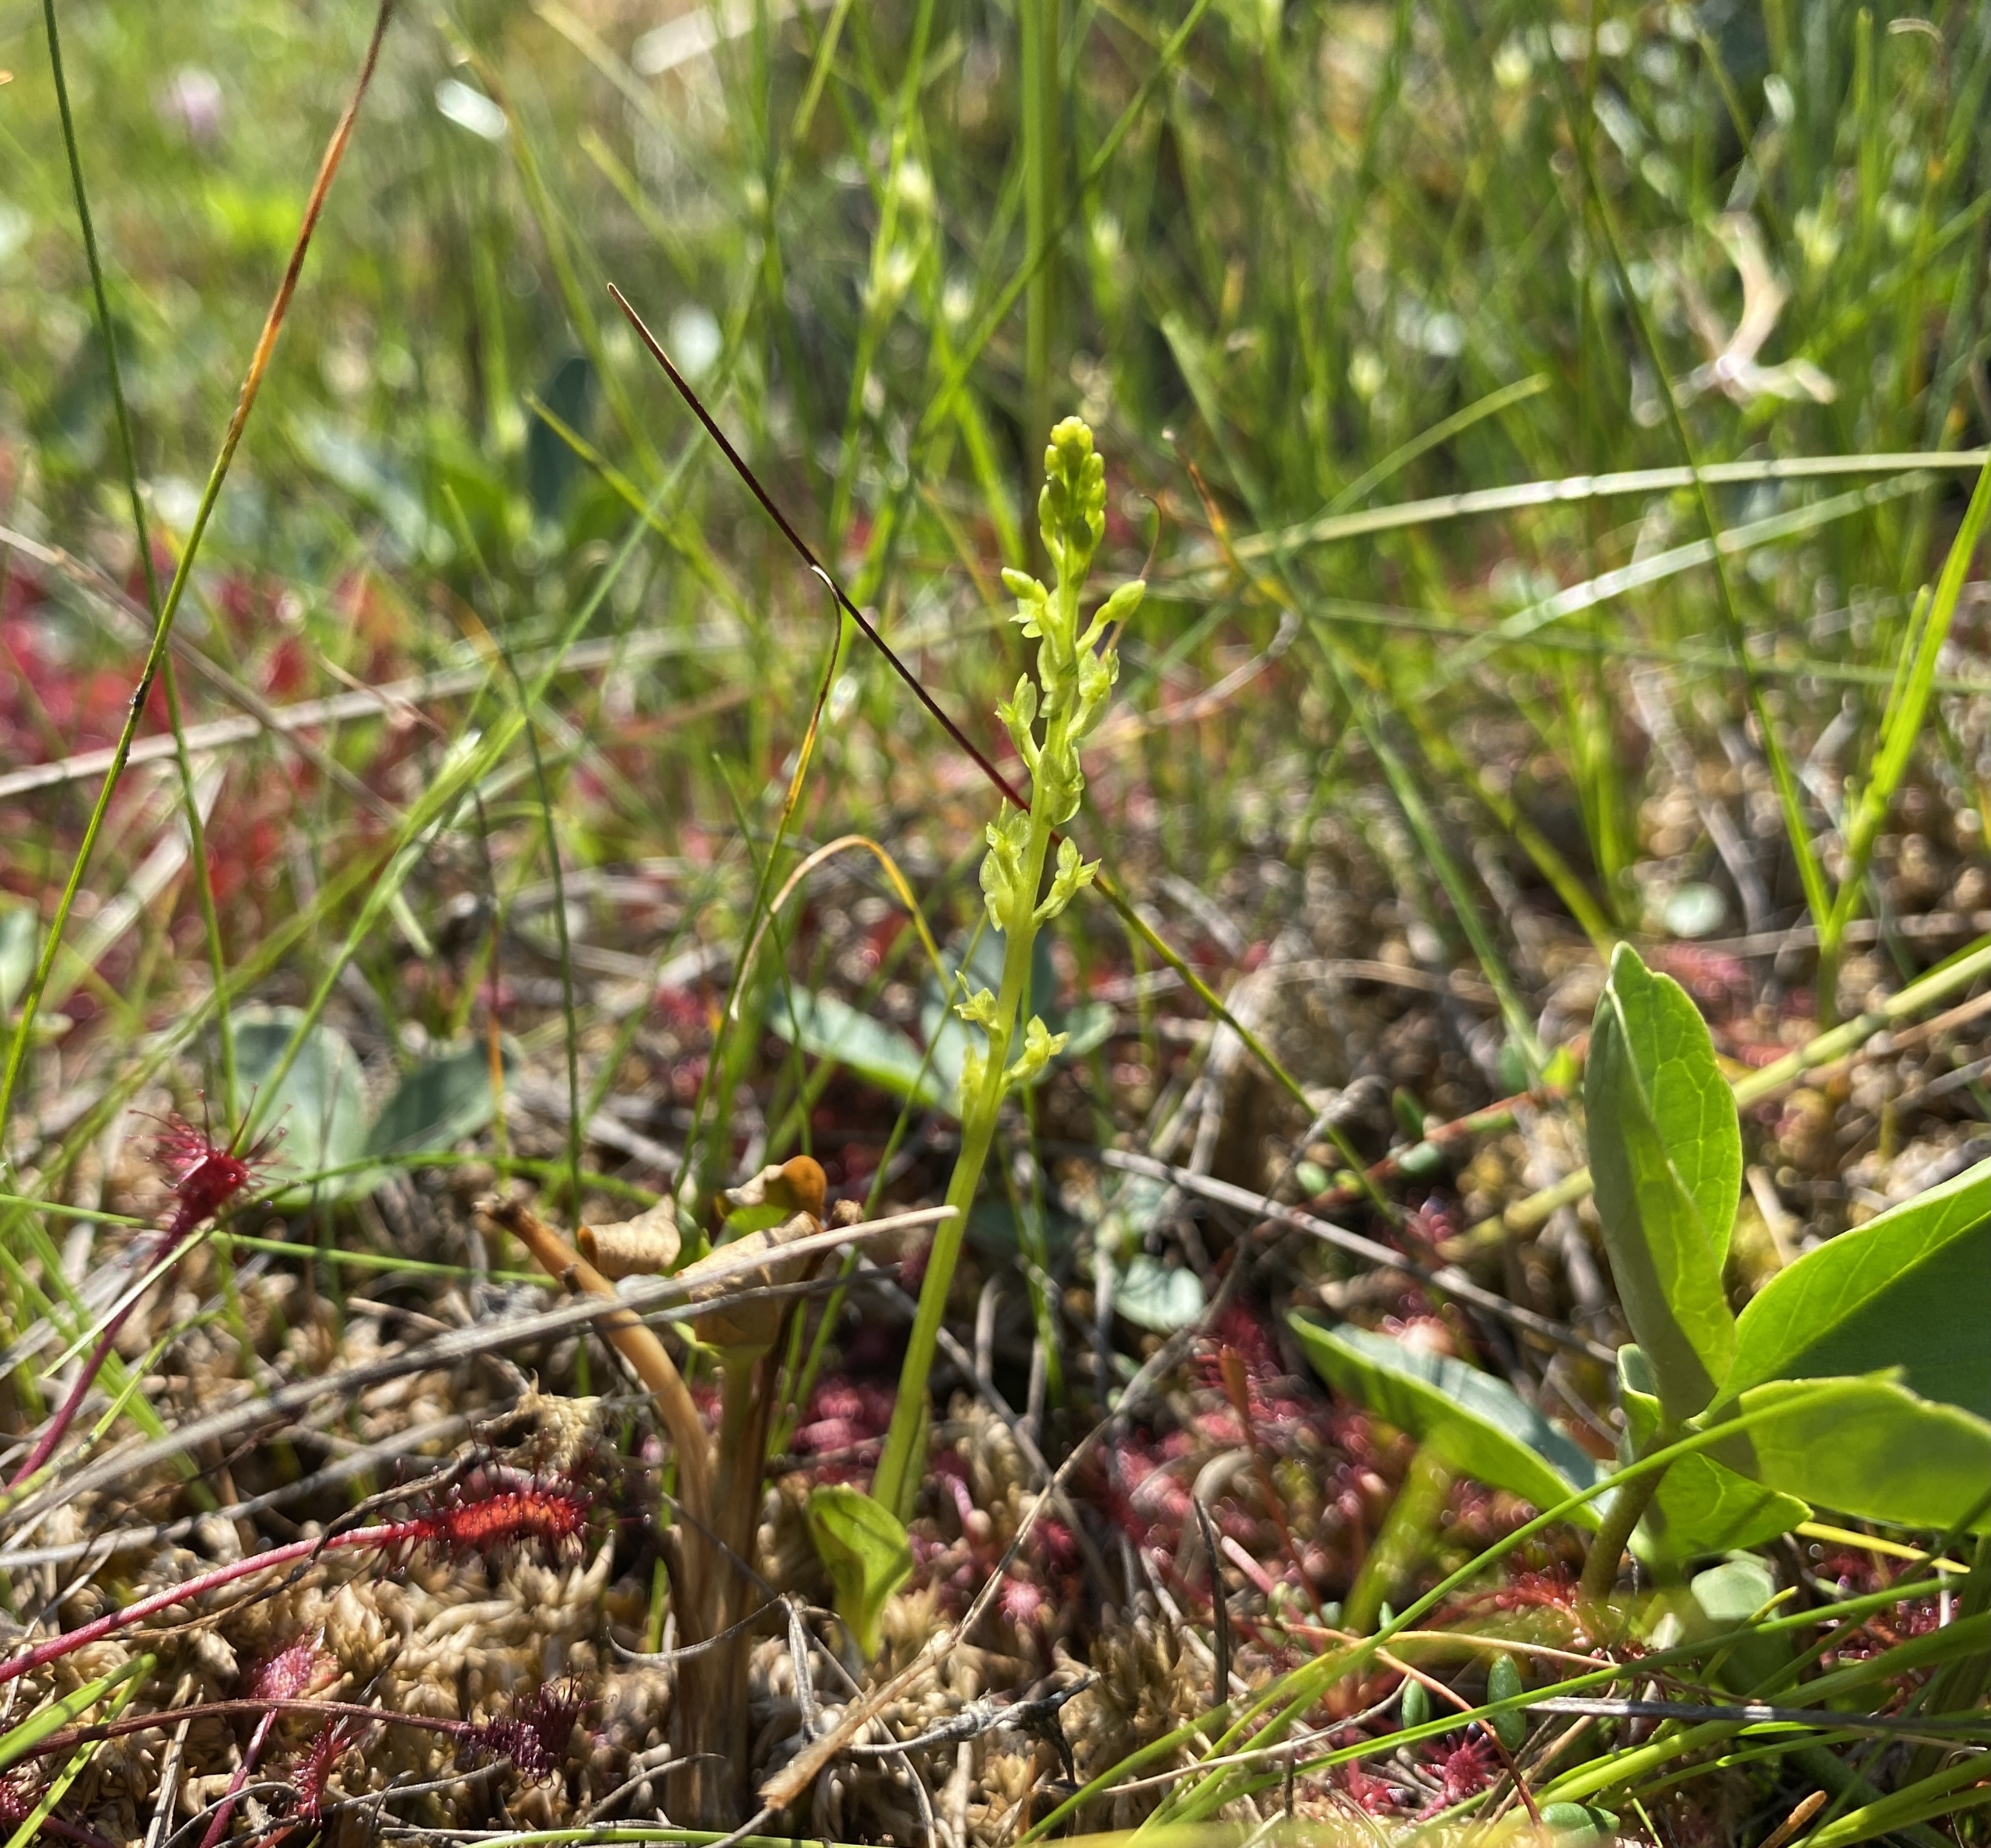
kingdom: Plantae
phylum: Tracheophyta
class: Liliopsida
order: Asparagales
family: Orchidaceae
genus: Hammarbya
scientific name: Hammarbya paludosa
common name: Hjertelæbe
